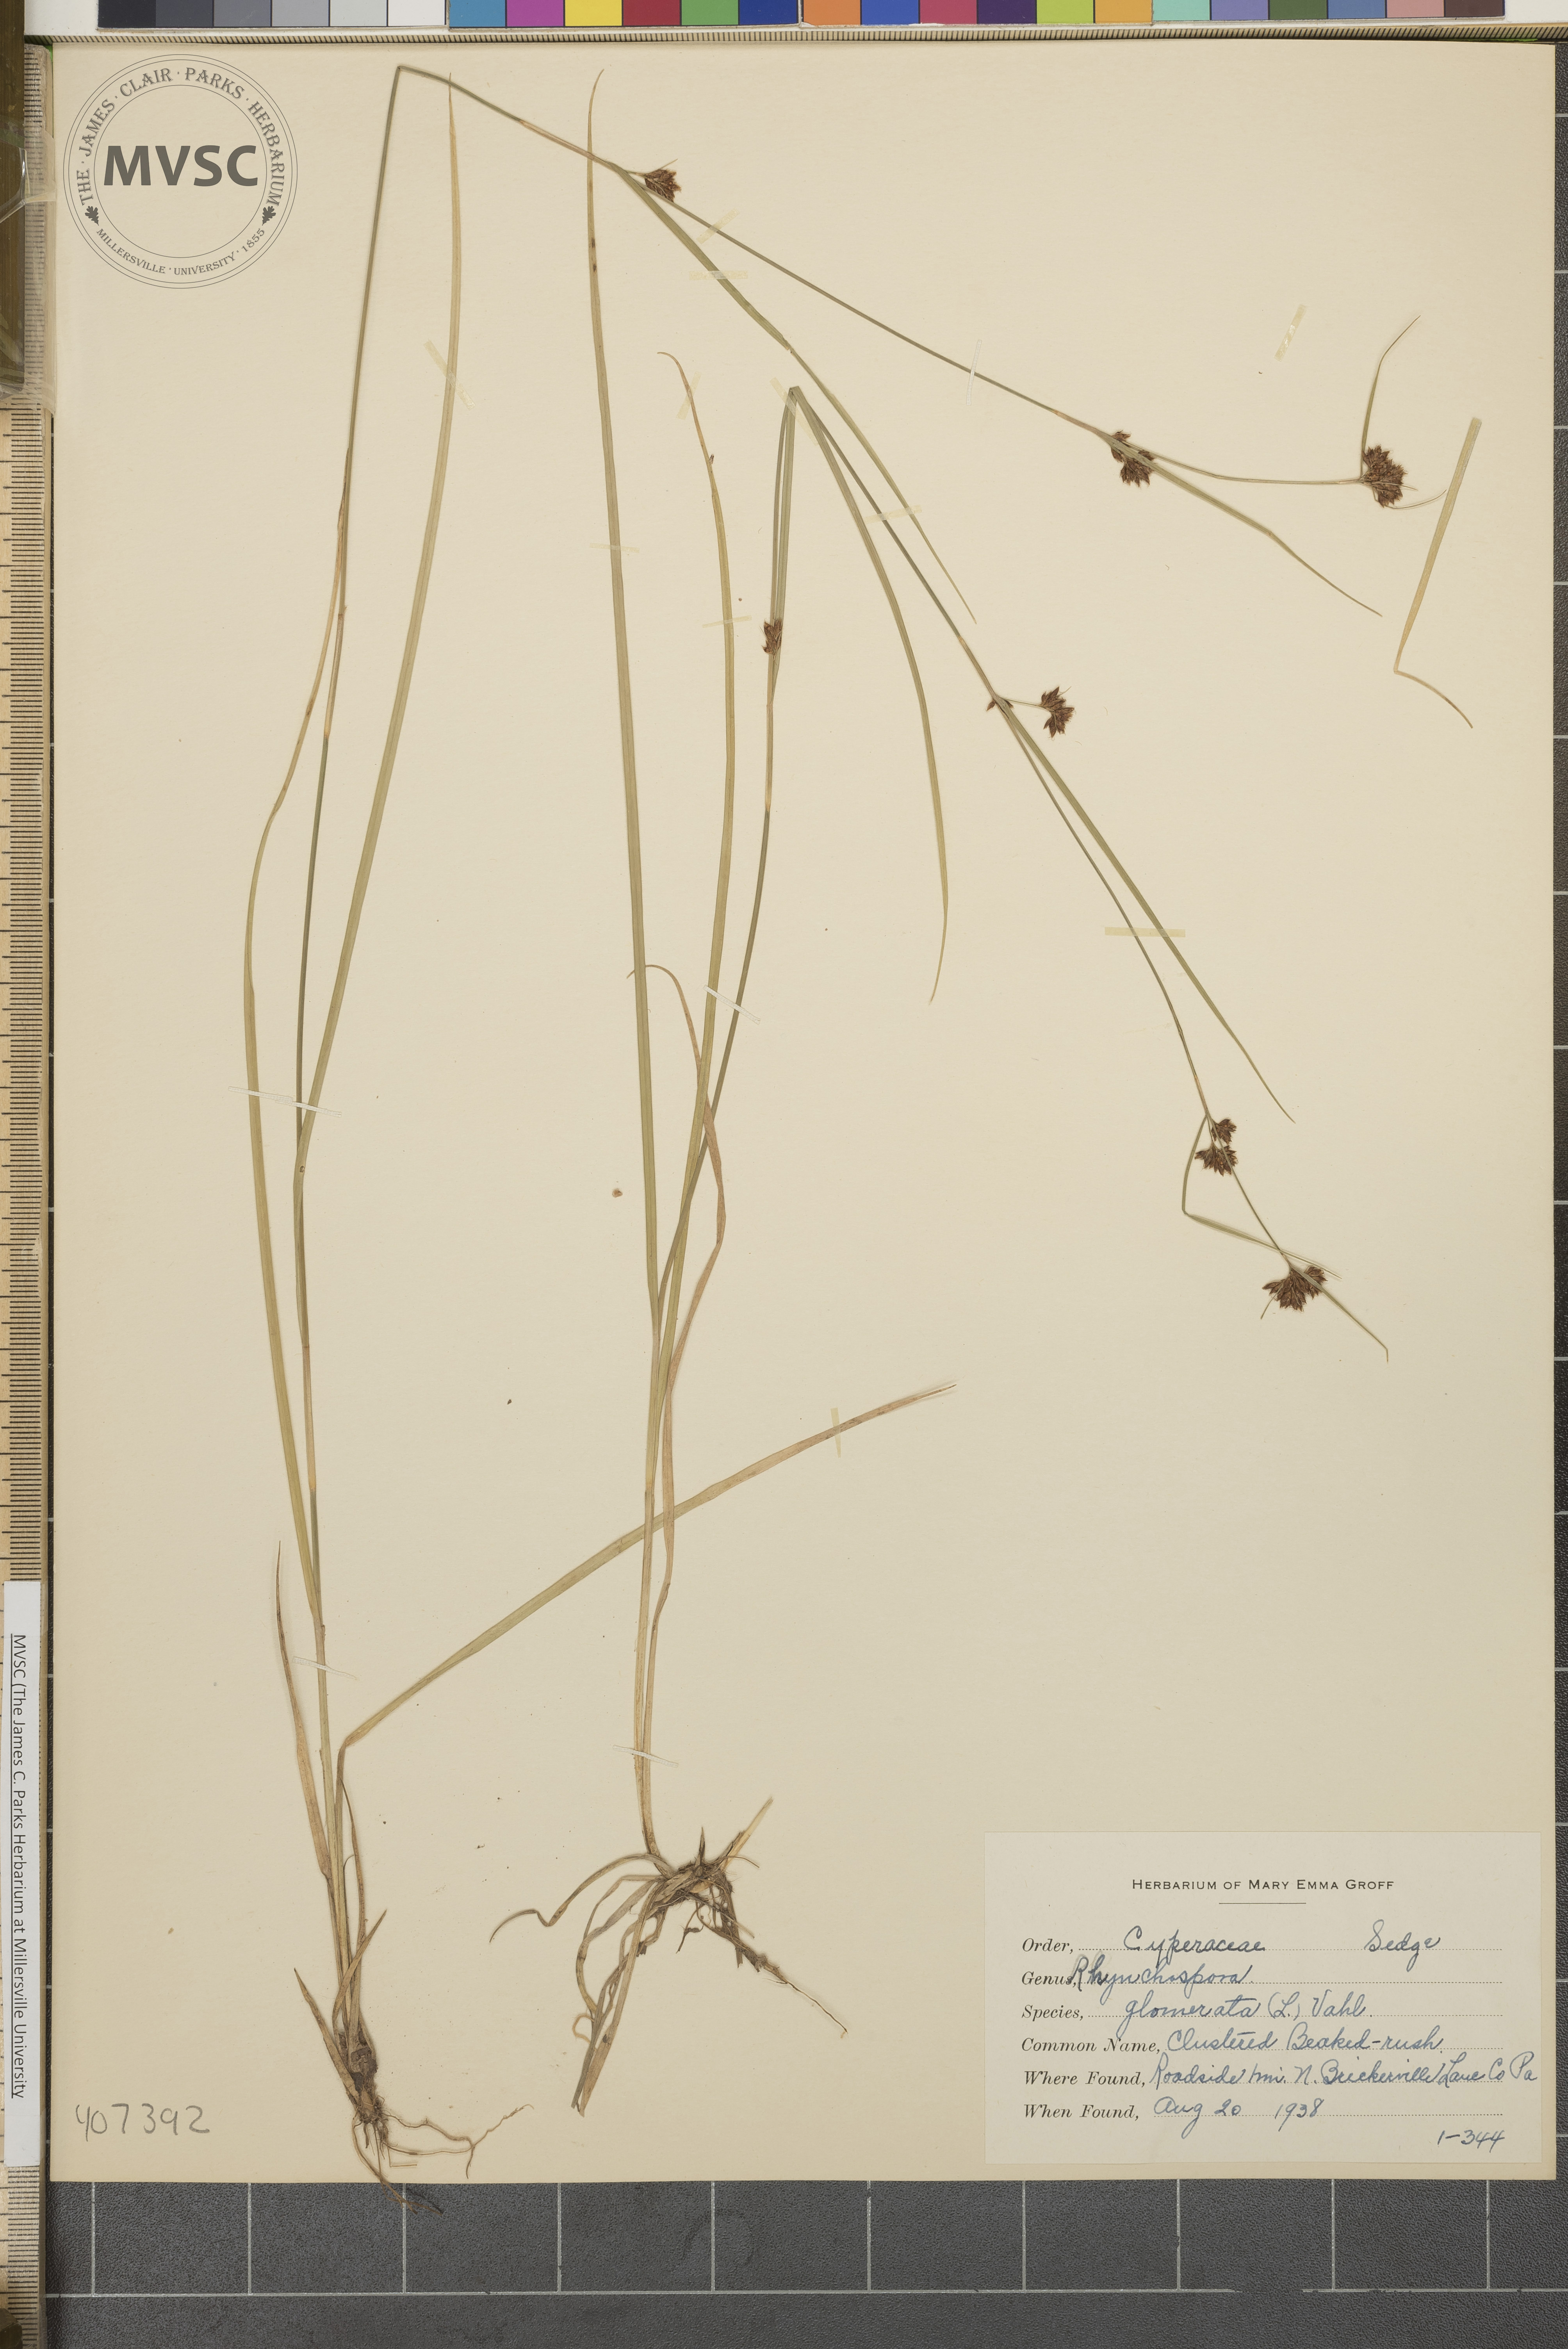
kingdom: Plantae
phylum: Tracheophyta
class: Liliopsida
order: Poales
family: Cyperaceae
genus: Rhynchospora
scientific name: Rhynchospora capitellata
